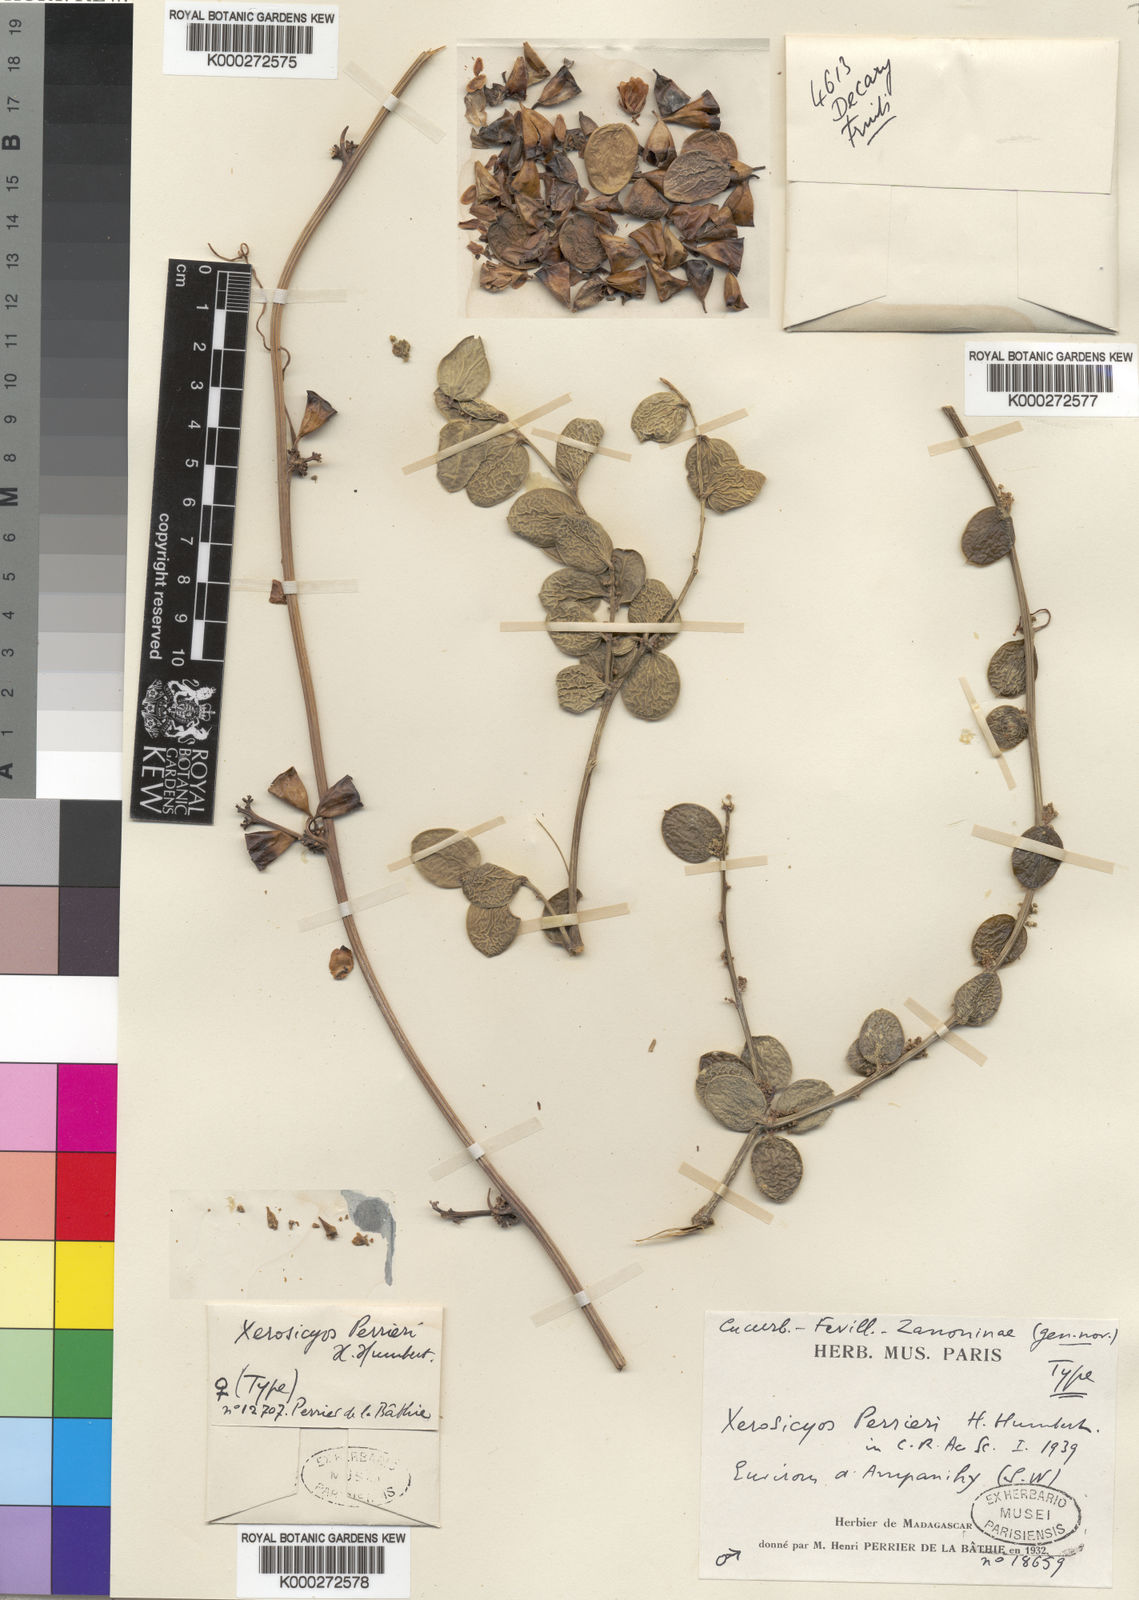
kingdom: Plantae
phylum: Tracheophyta
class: Magnoliopsida
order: Cucurbitales
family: Cucurbitaceae
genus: Xerosicyos
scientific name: Xerosicyos perrieri
